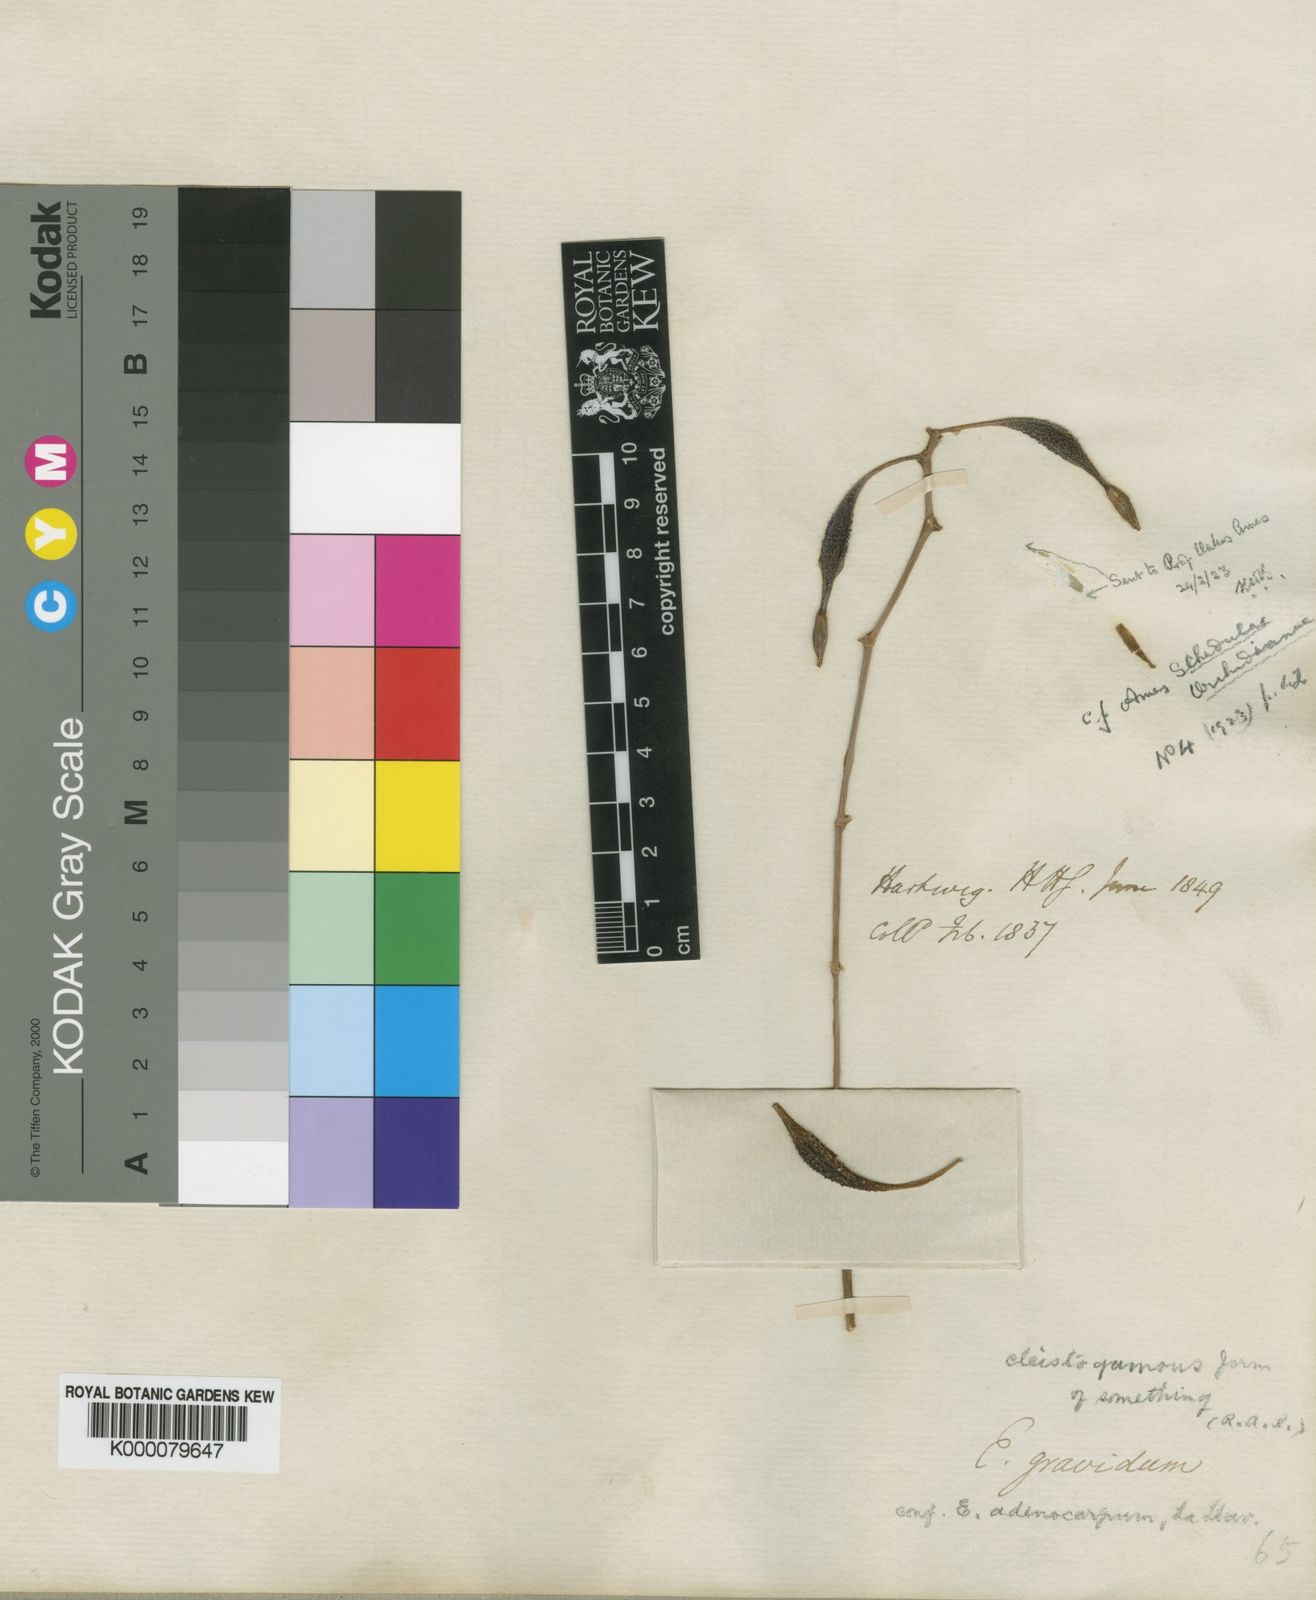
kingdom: Plantae
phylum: Tracheophyta
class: Liliopsida
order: Asparagales
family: Orchidaceae
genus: Encyclia
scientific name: Encyclia gravida
